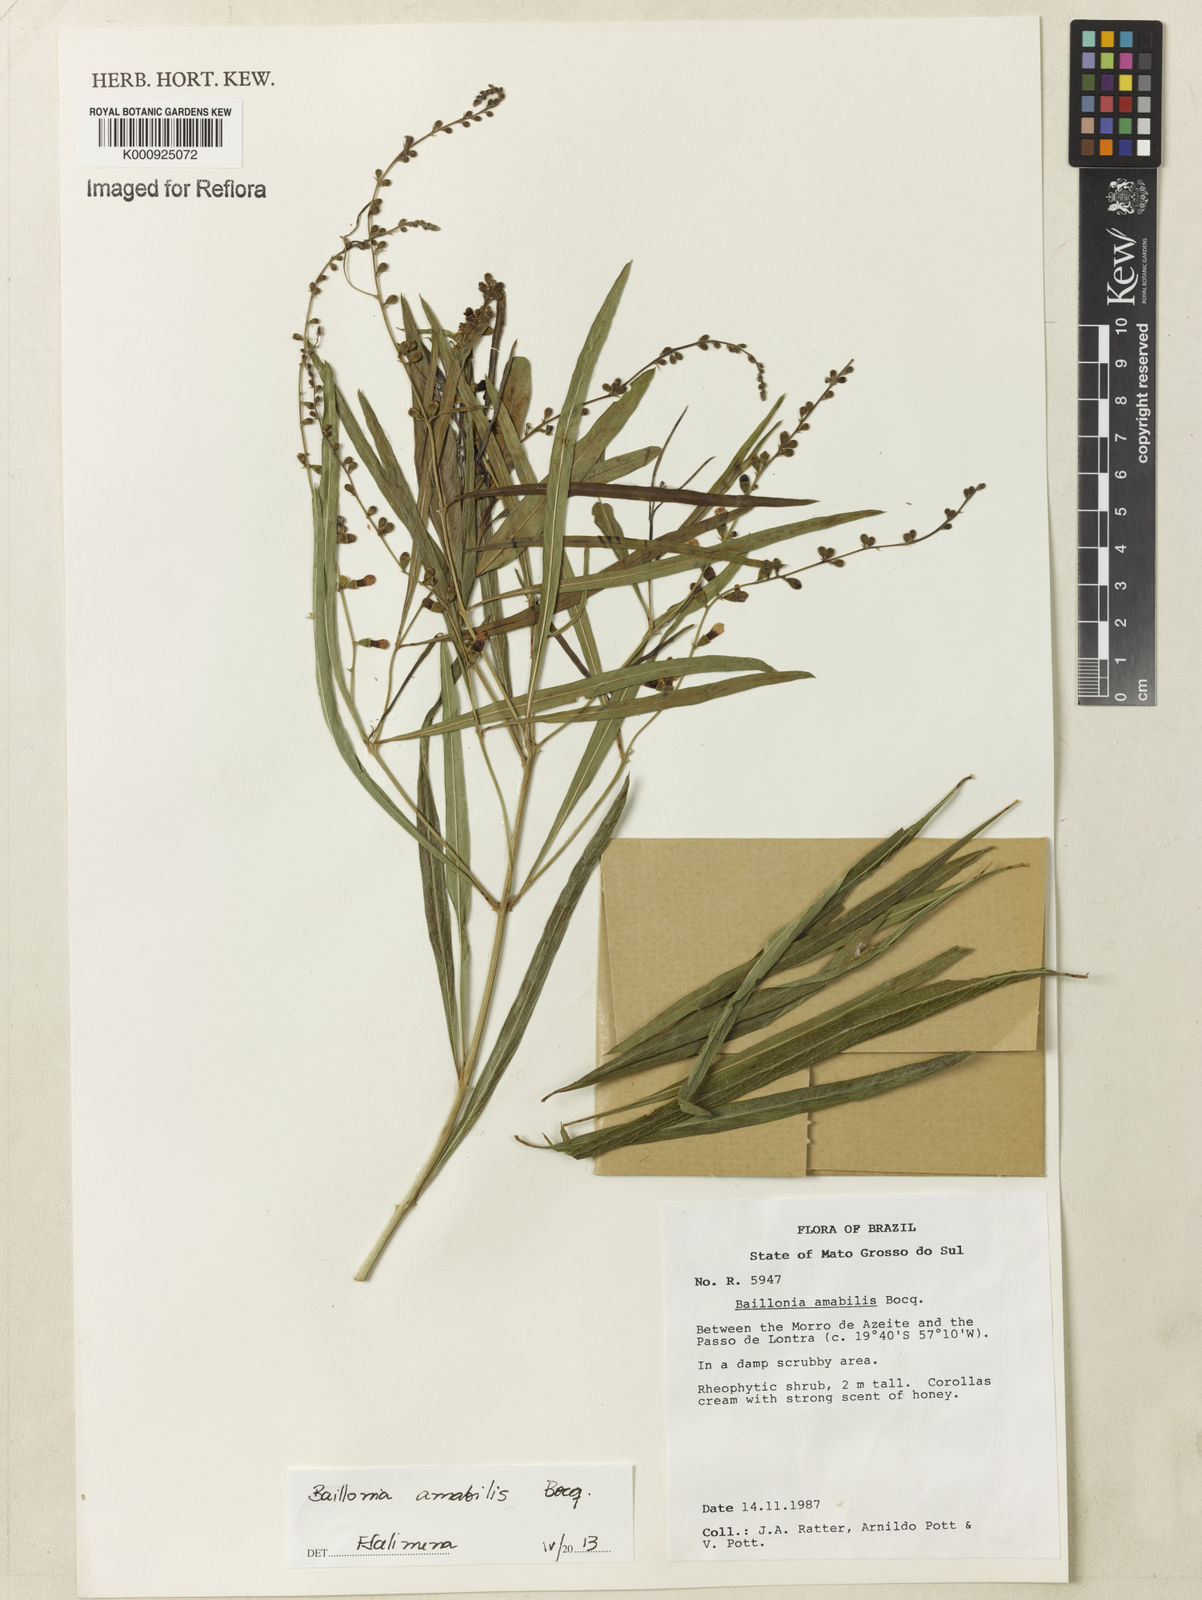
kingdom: Plantae
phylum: Tracheophyta
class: Magnoliopsida
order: Lamiales
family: Verbenaceae
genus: Citharexylum
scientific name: Citharexylum amabile
